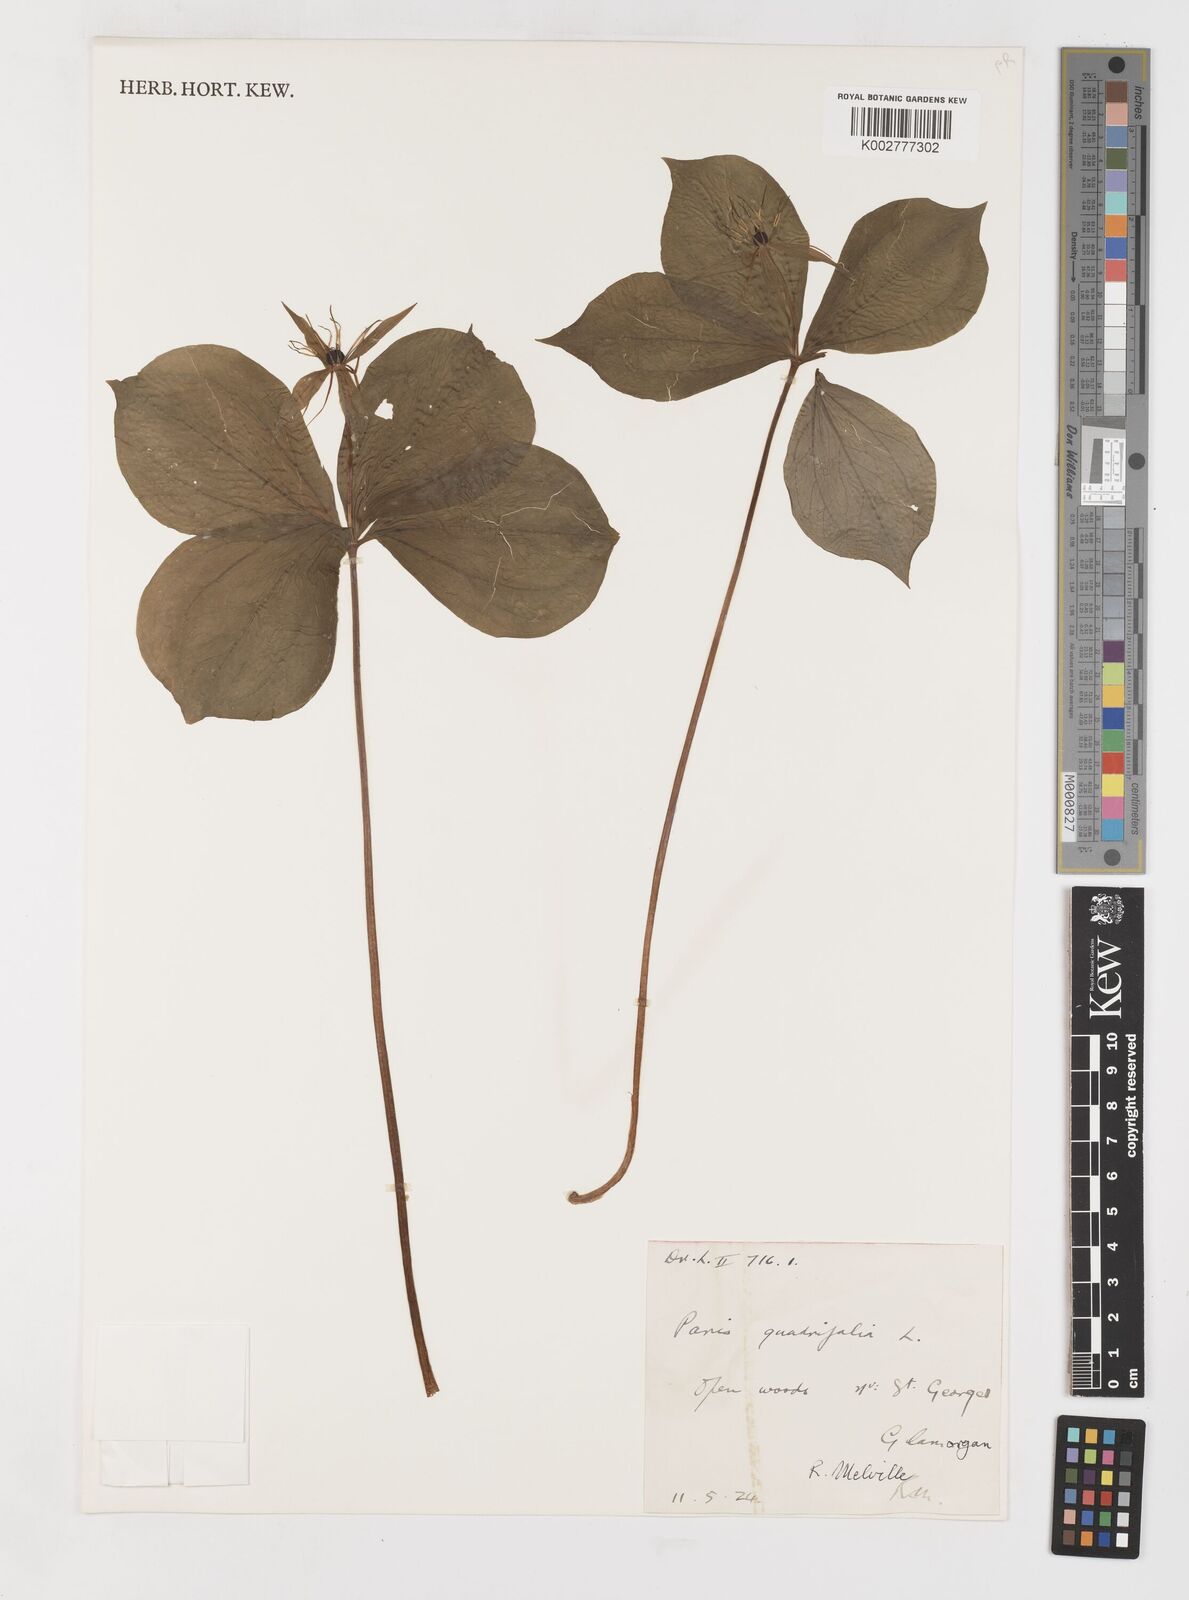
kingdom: Plantae
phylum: Tracheophyta
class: Liliopsida
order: Liliales
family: Melanthiaceae
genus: Paris
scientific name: Paris quadrifolia
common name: Herb-paris
